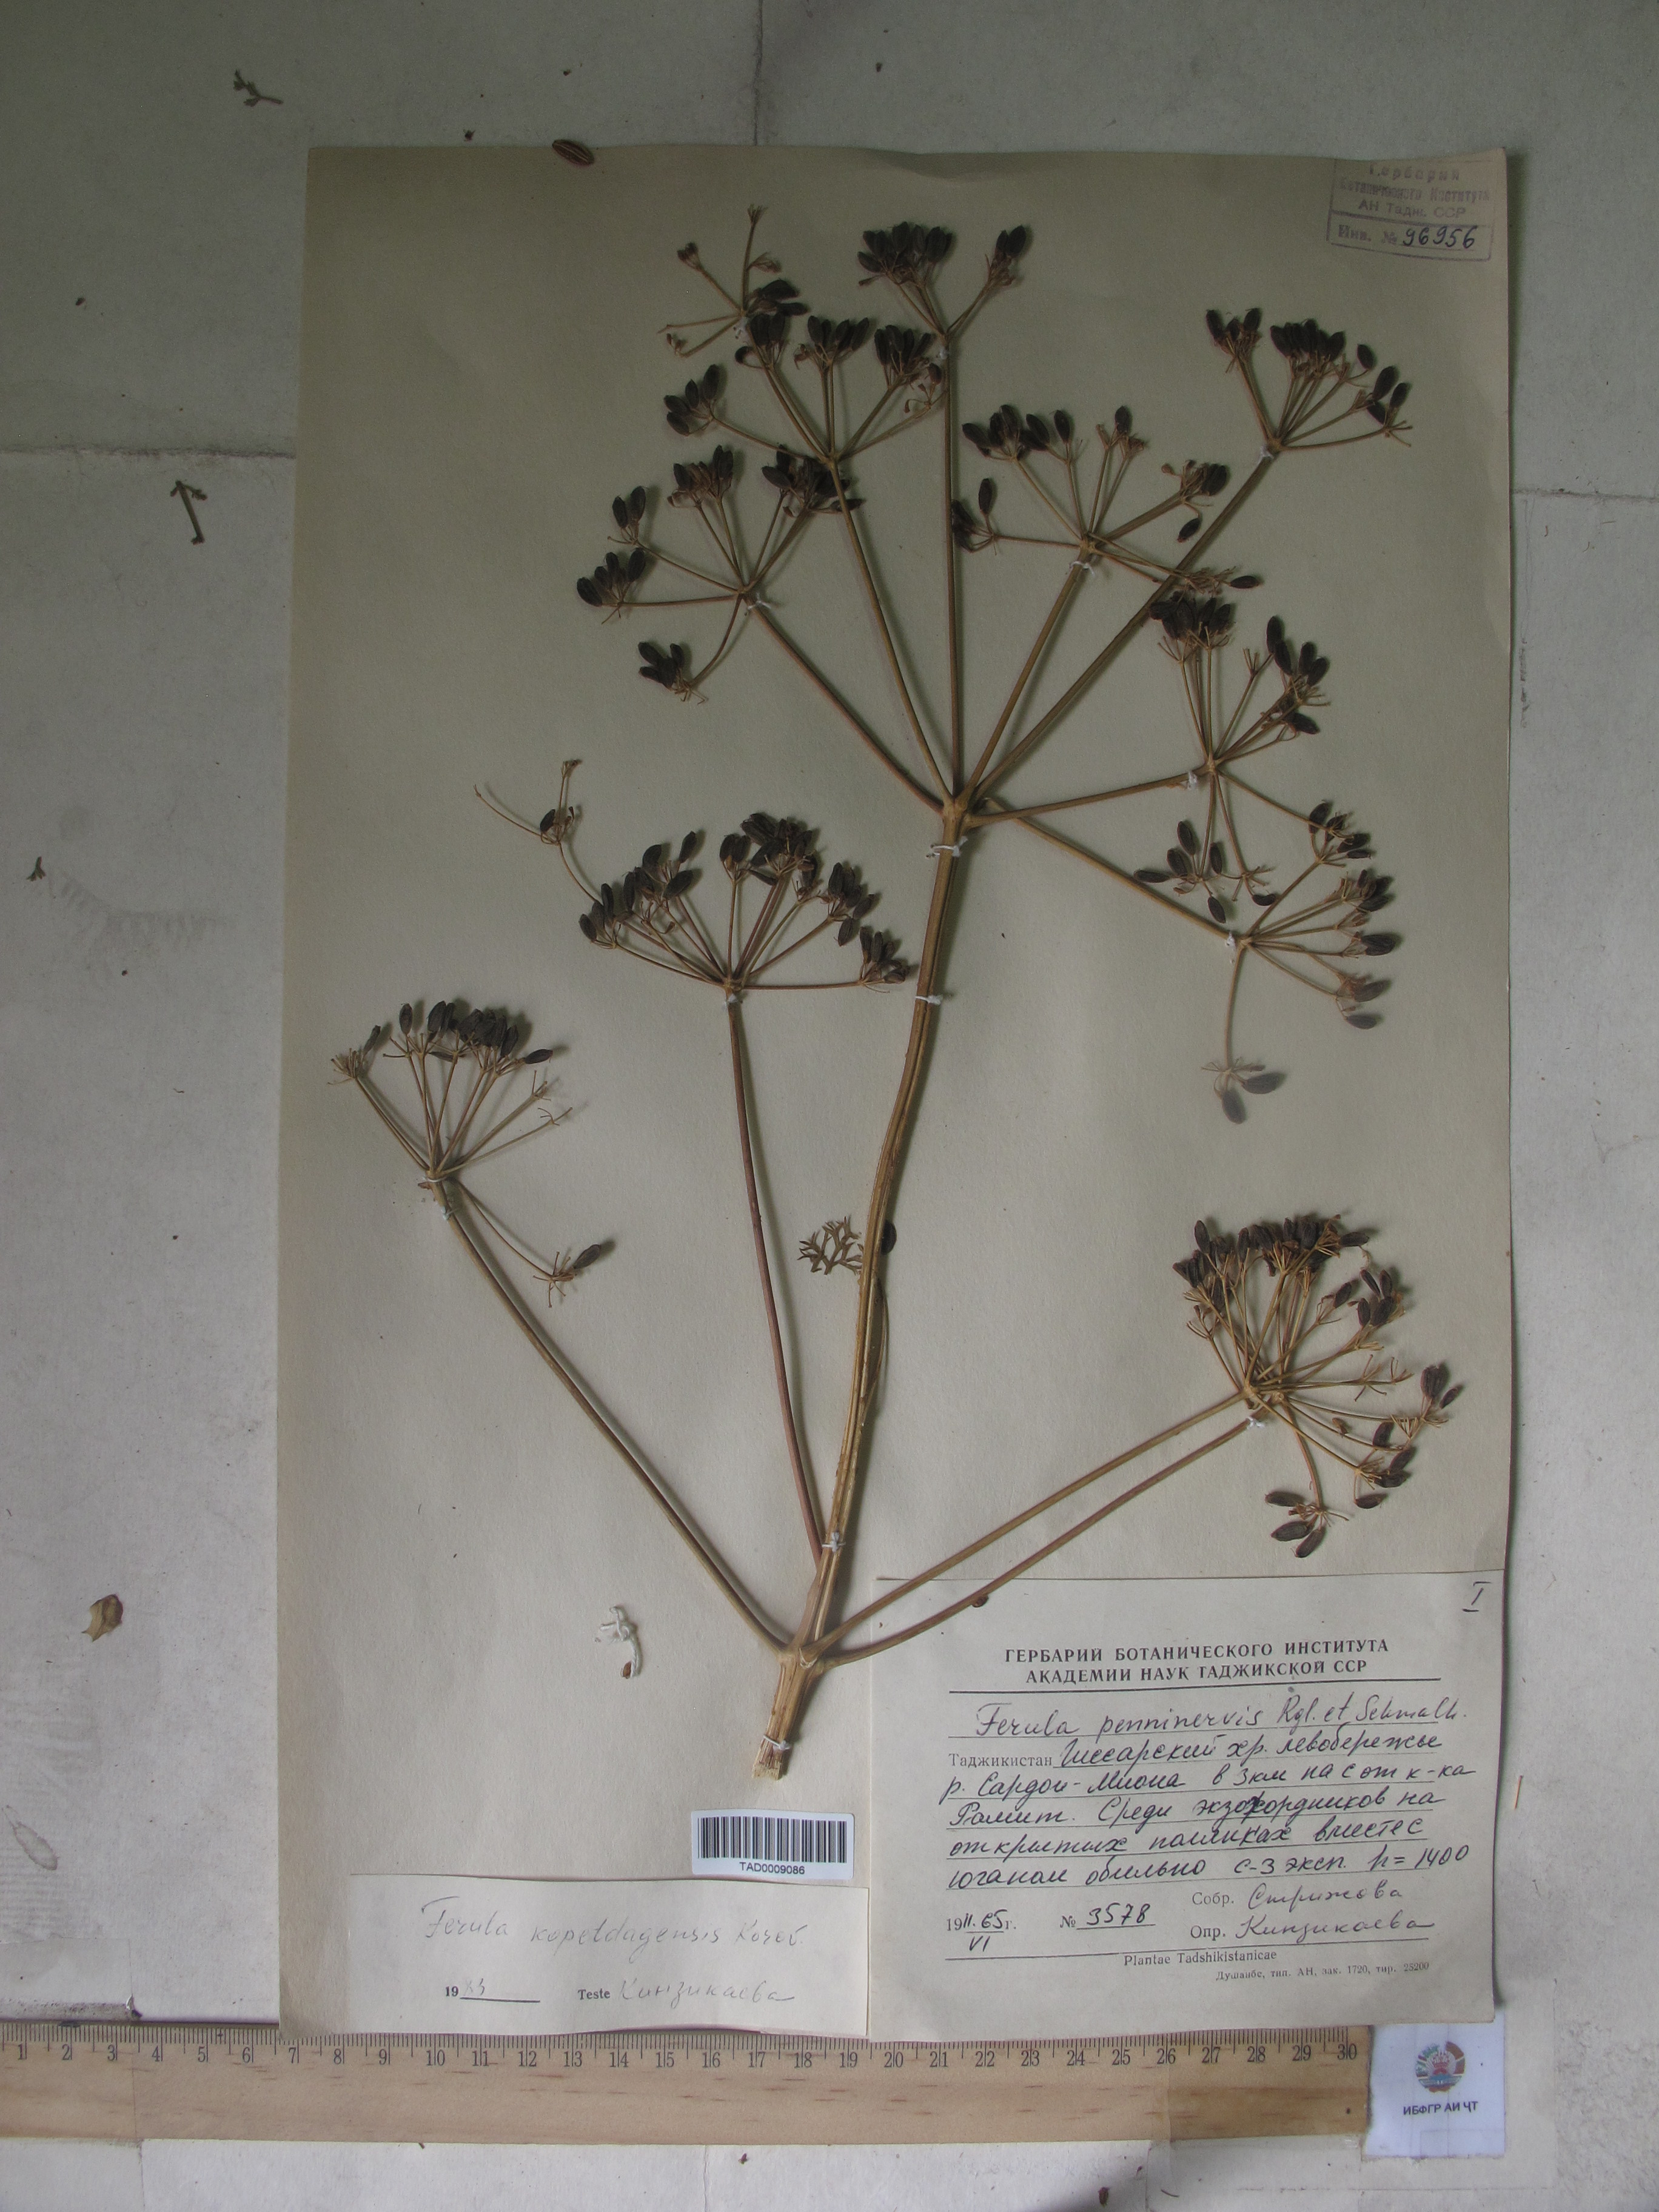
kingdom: Plantae
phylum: Tracheophyta
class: Magnoliopsida
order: Apiales
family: Apiaceae
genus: Ferula
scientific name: Ferula ovina
